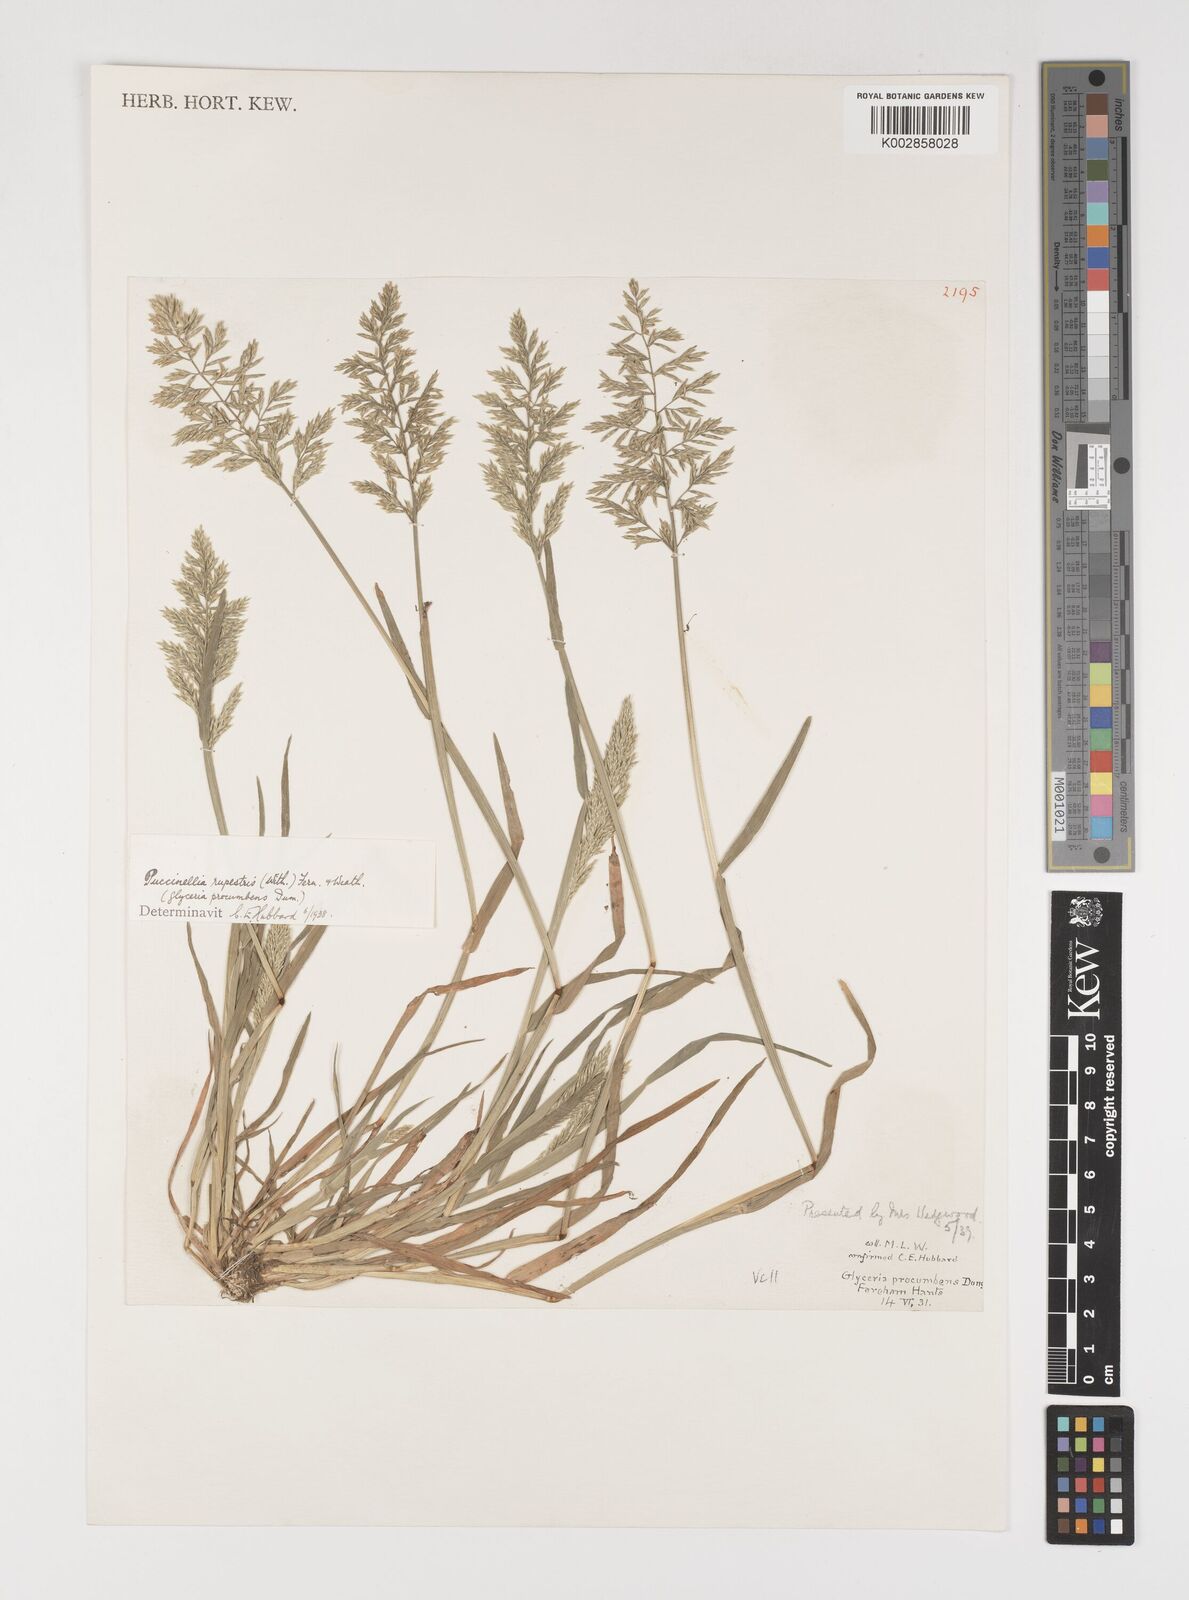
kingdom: Plantae
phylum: Tracheophyta
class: Liliopsida
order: Poales
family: Poaceae
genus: Puccinellia
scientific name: Puccinellia rupestris
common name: Stiff saltmarsh-grass
